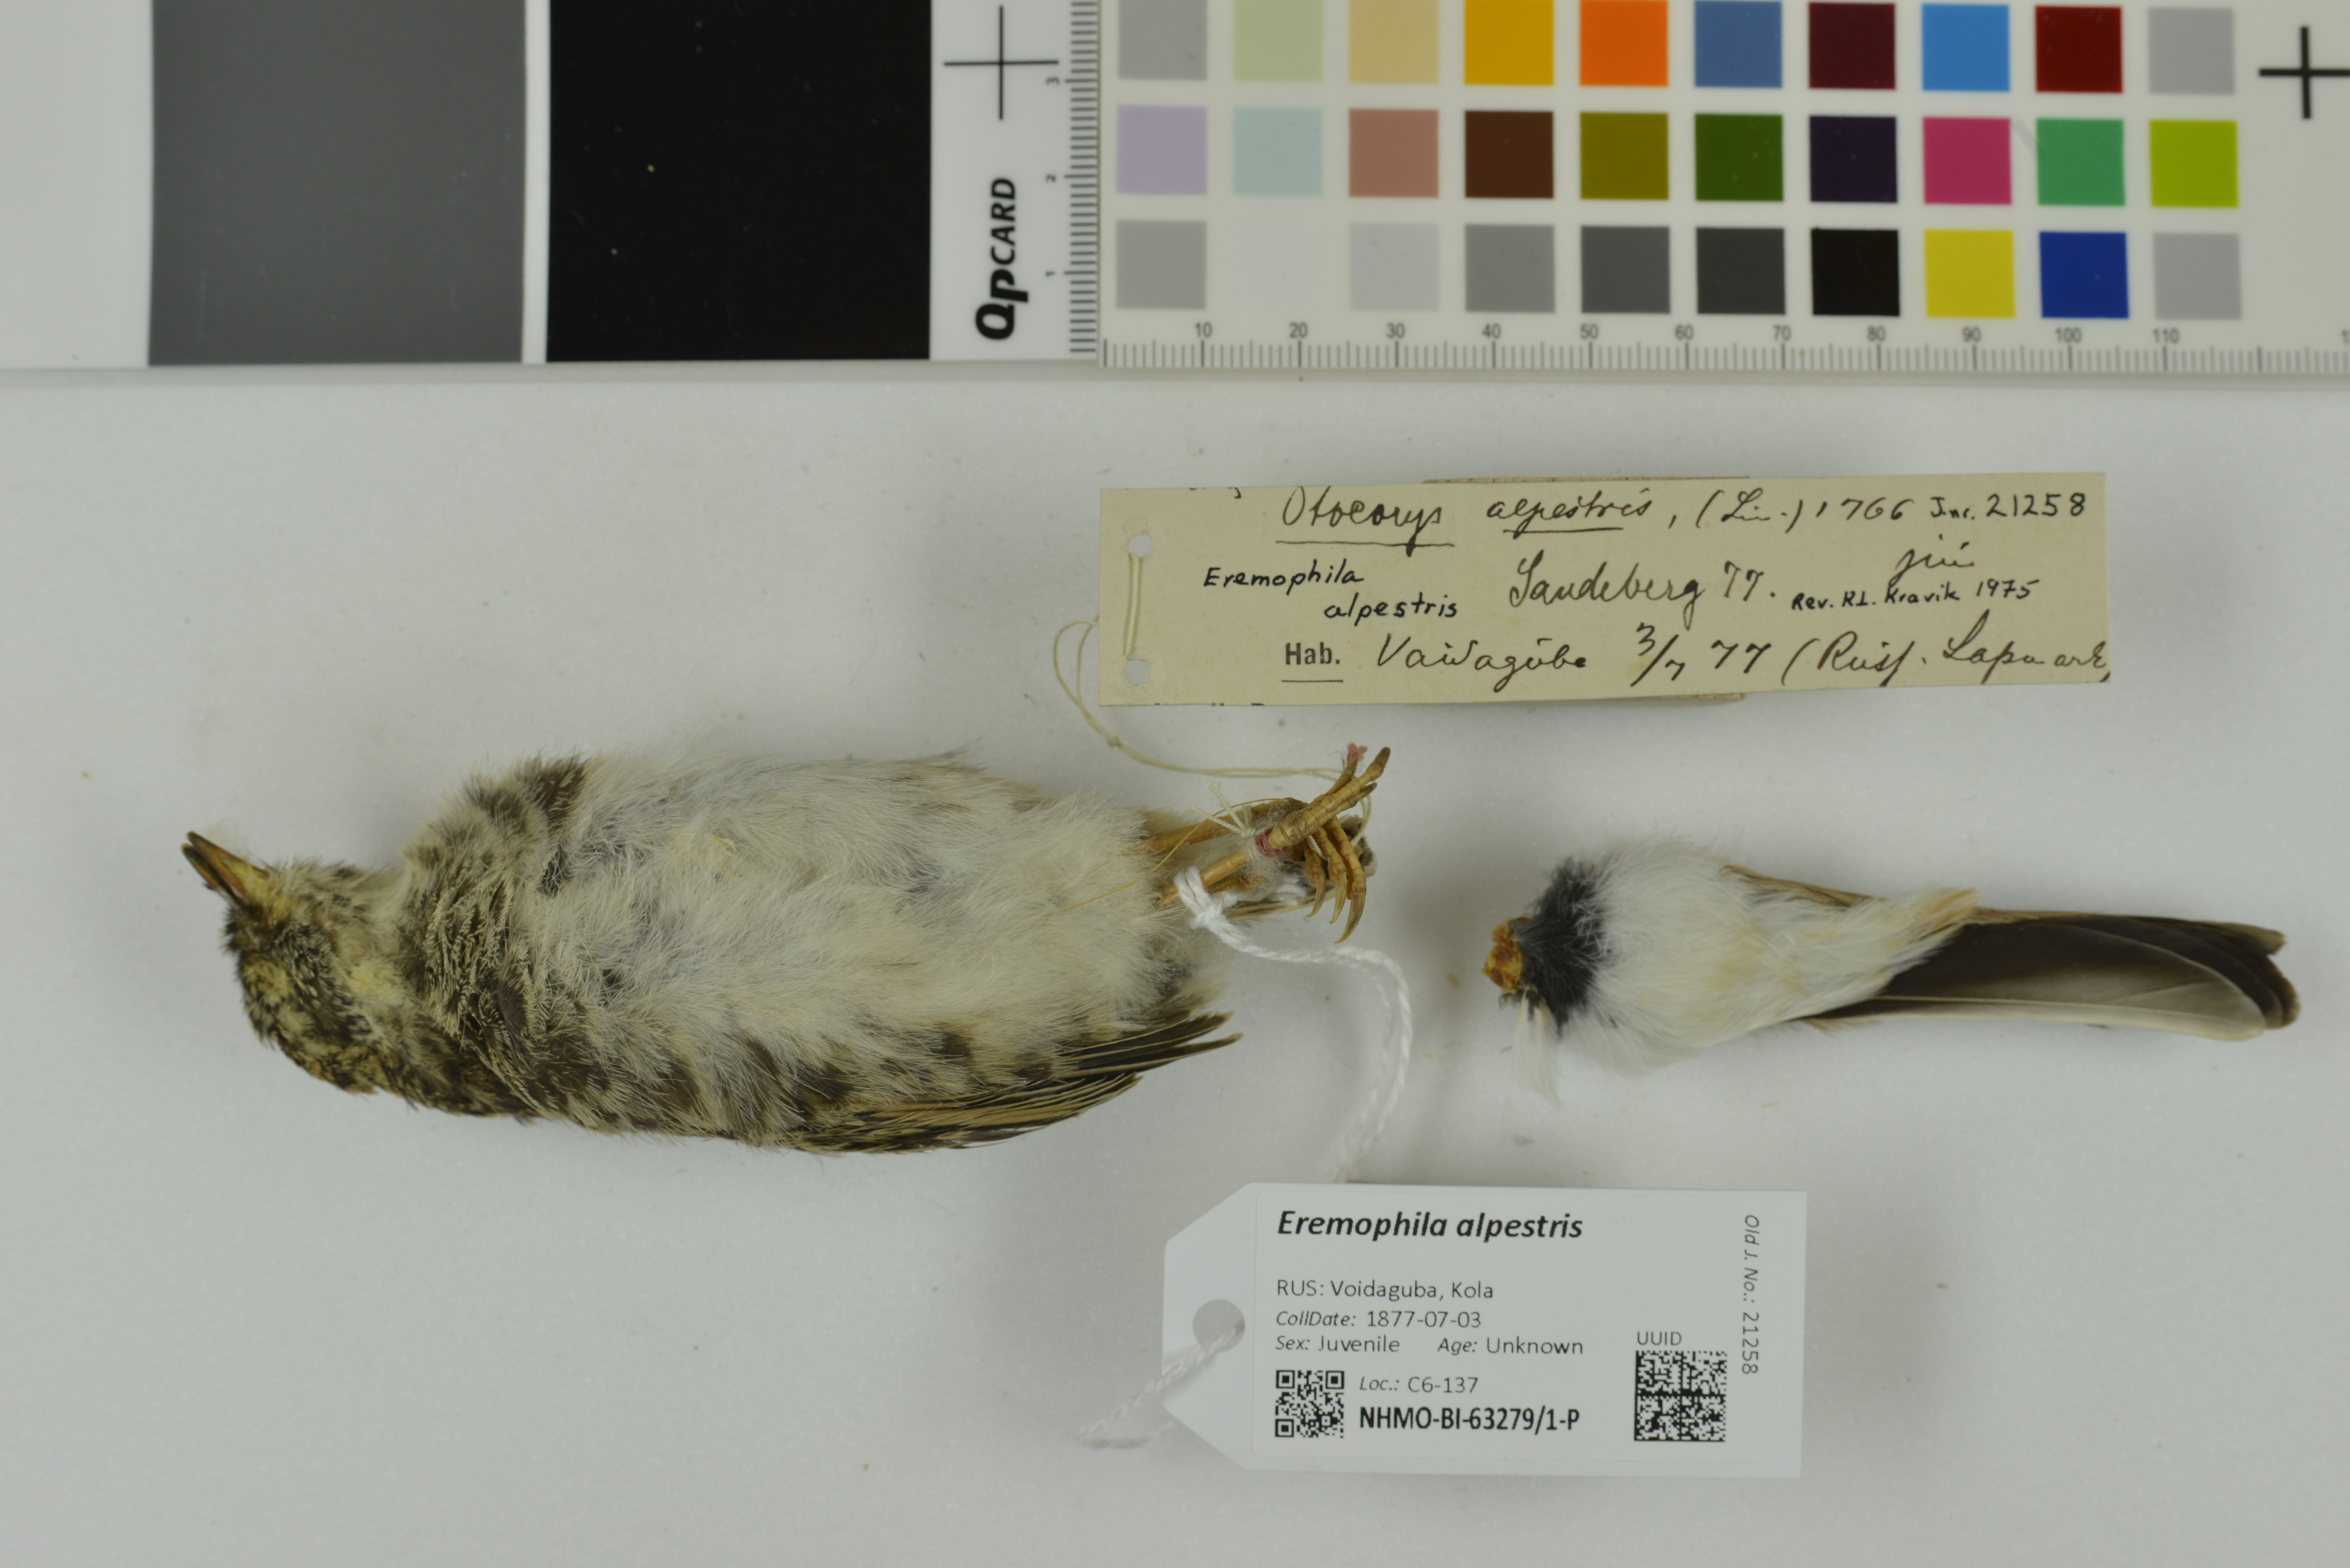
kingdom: Animalia
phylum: Chordata
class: Aves
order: Passeriformes
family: Alaudidae
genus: Eremophila
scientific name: Eremophila alpestris
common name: Horned lark
